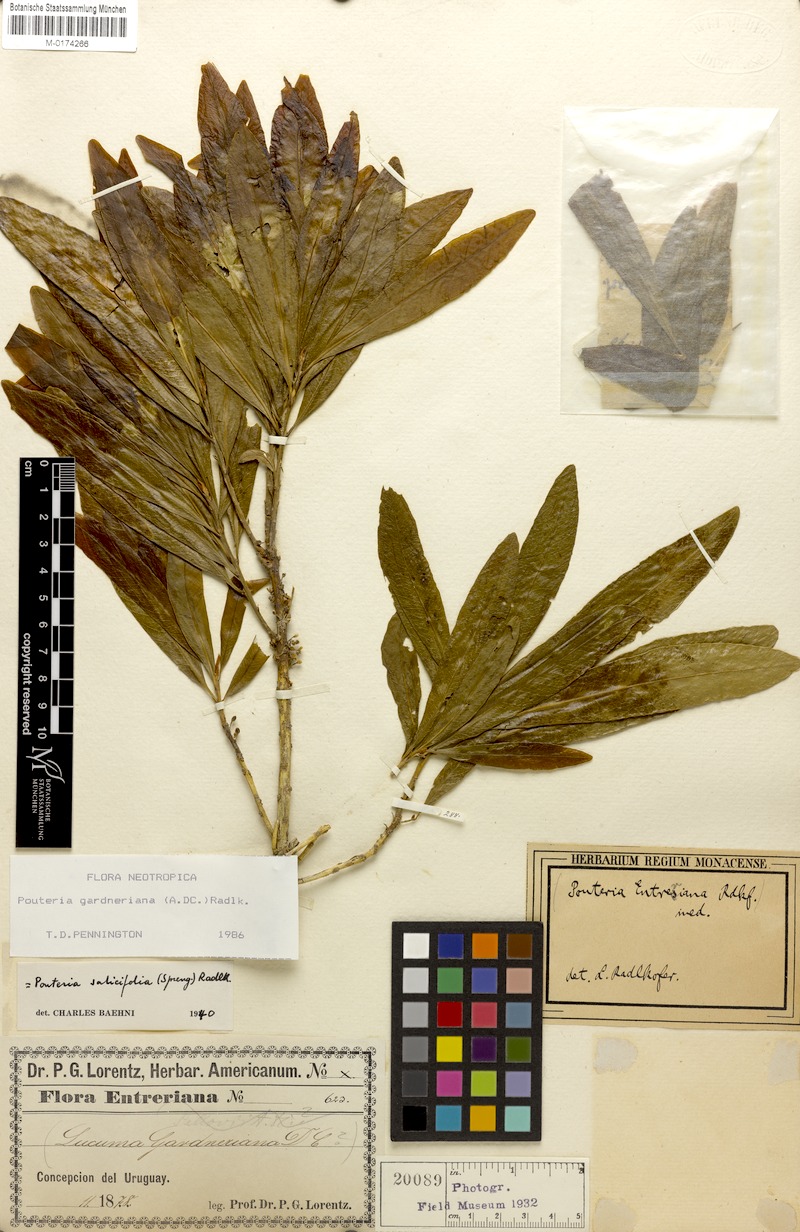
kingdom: Plantae
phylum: Tracheophyta
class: Magnoliopsida
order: Ericales
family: Sapotaceae
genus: Pouteria
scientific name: Pouteria gardneriana
